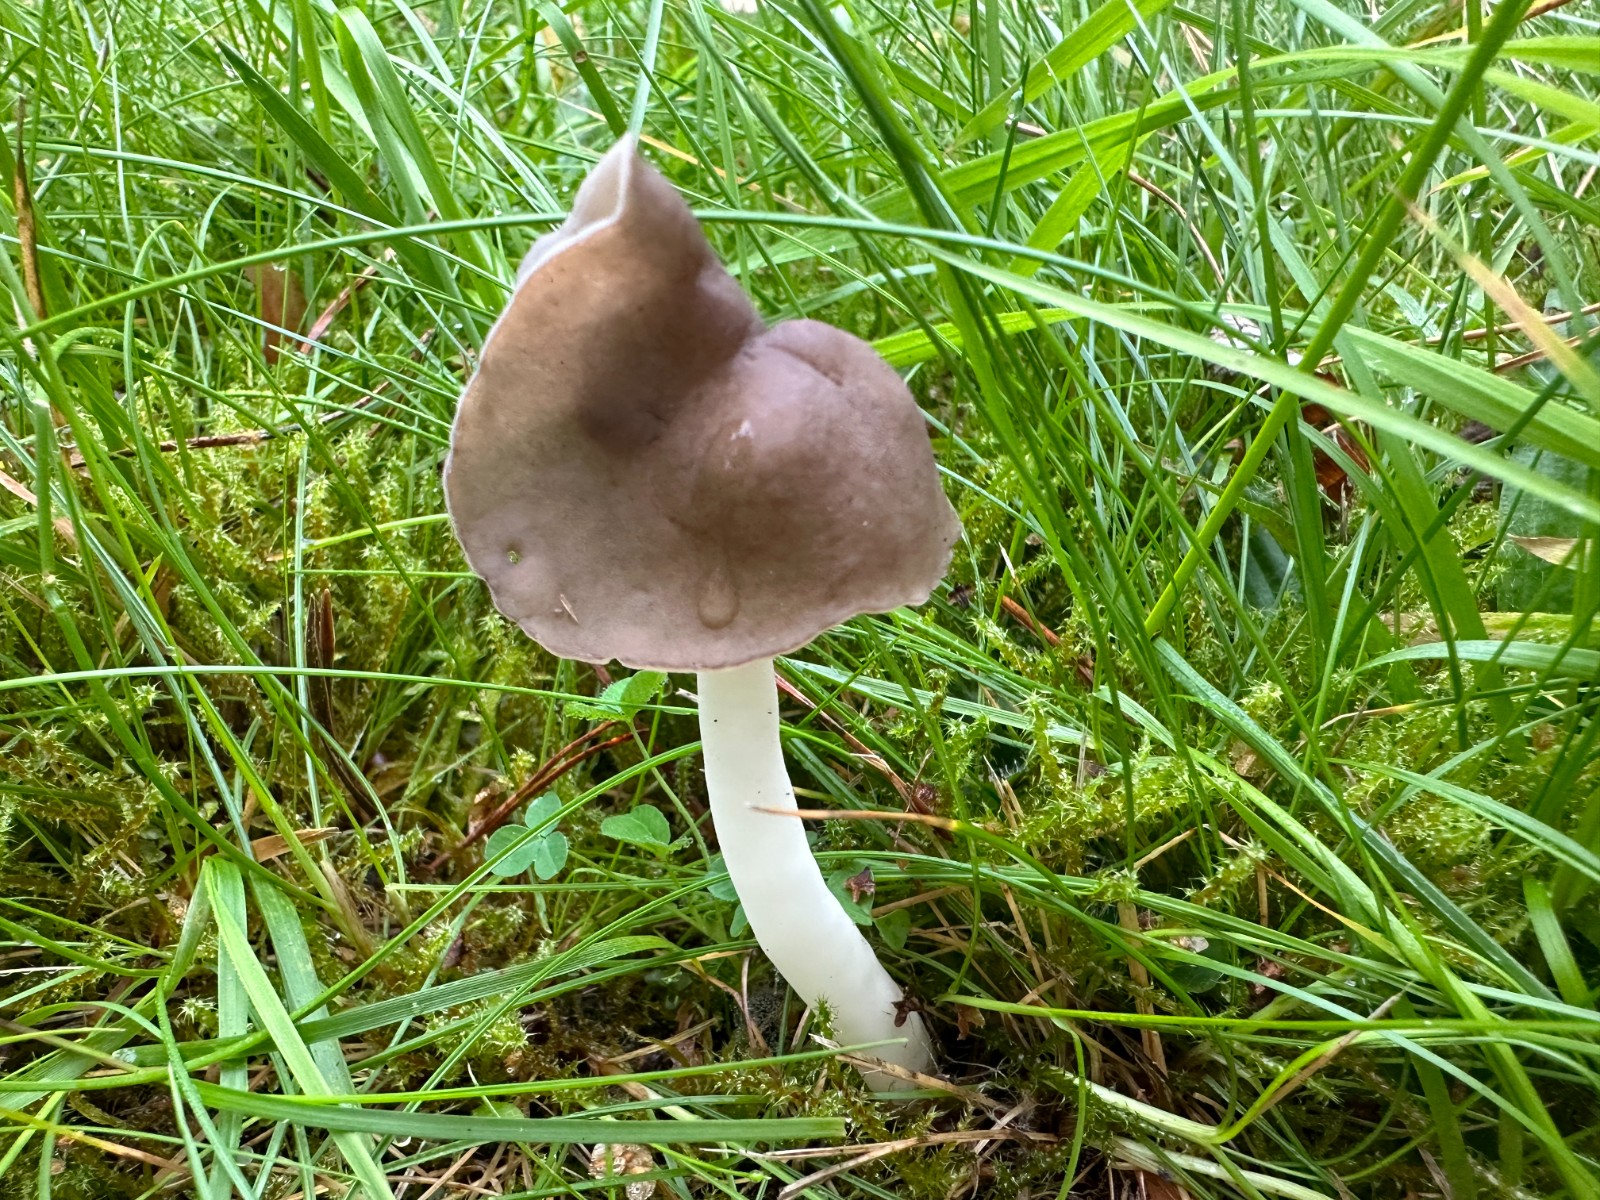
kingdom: Fungi
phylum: Ascomycota
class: Pezizomycetes
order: Pezizales
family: Helvellaceae
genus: Helvella
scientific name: Helvella elastica
